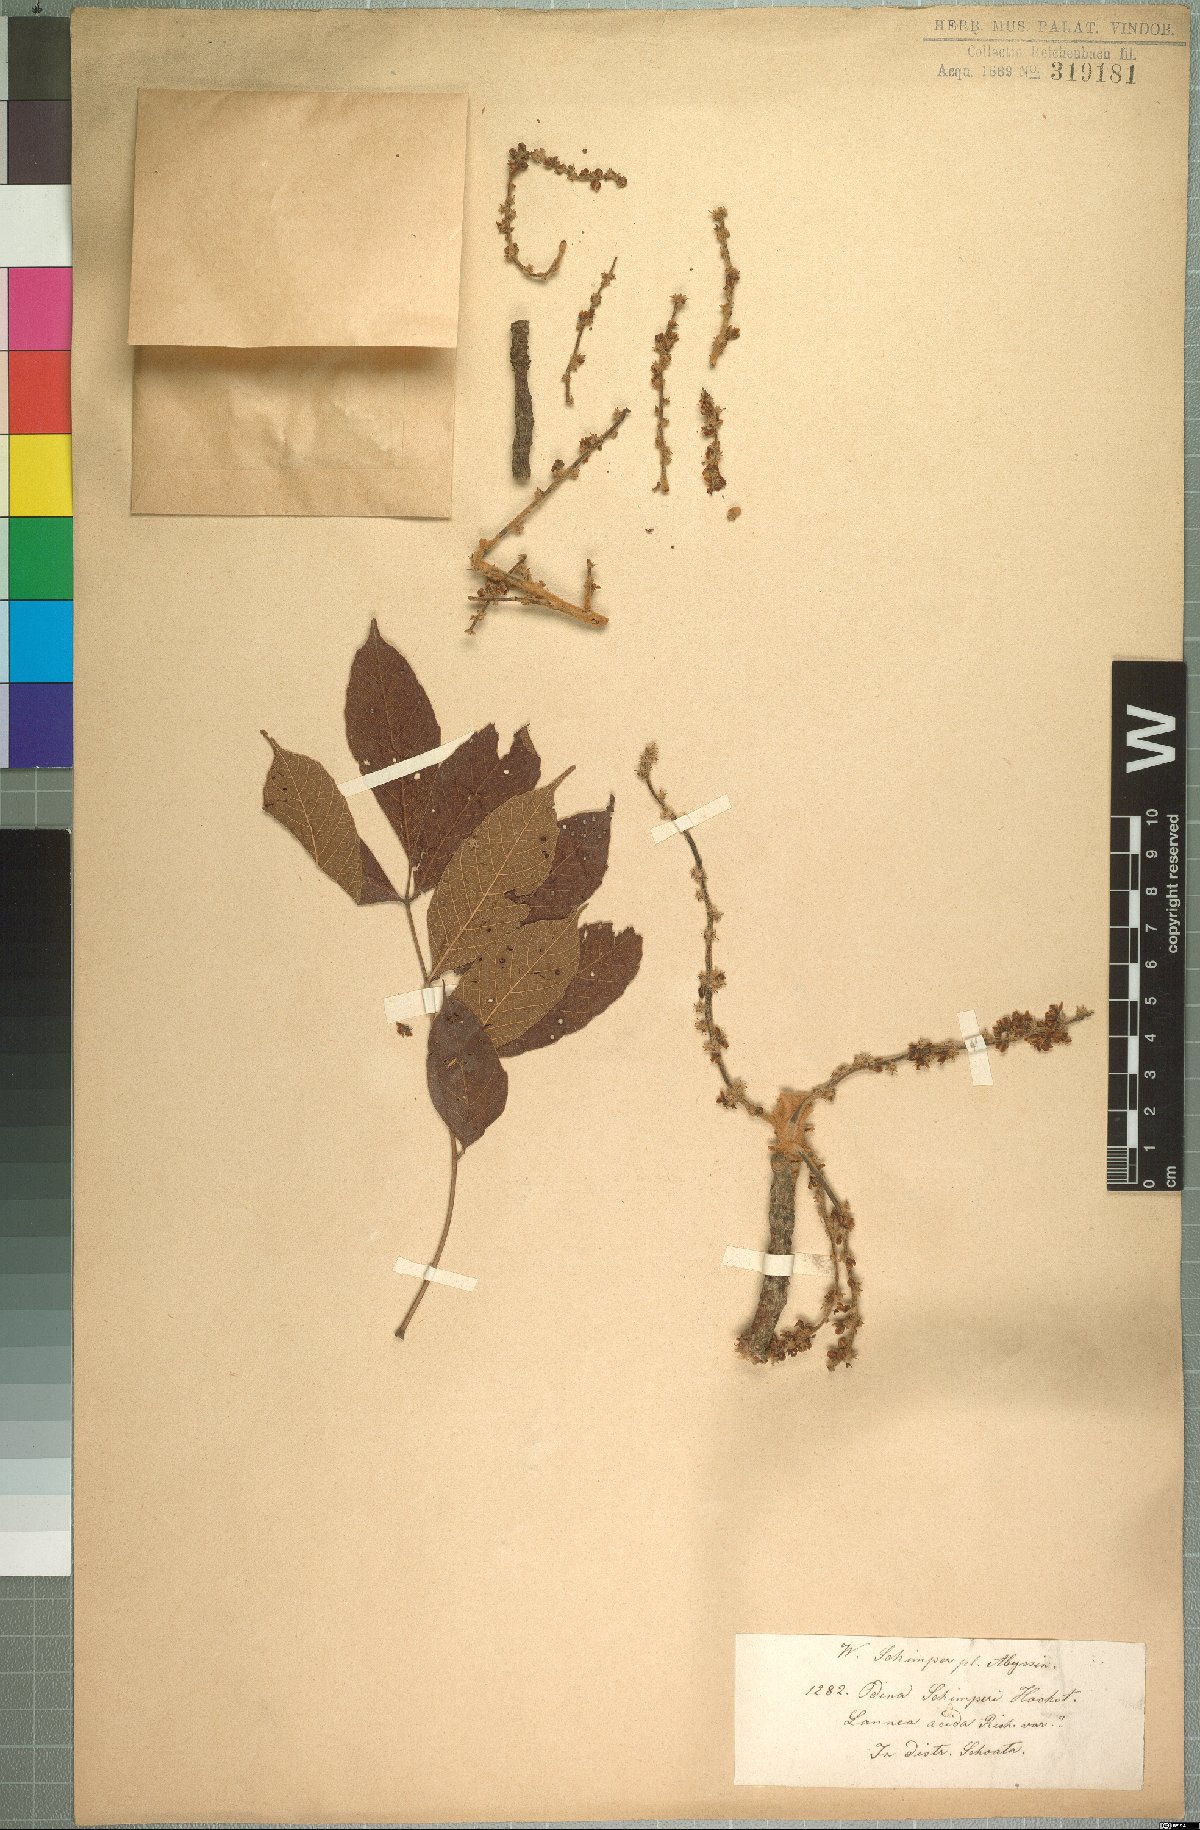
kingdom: Plantae
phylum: Tracheophyta
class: Magnoliopsida
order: Sapindales
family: Anacardiaceae
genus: Lannea
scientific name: Lannea schimperi
